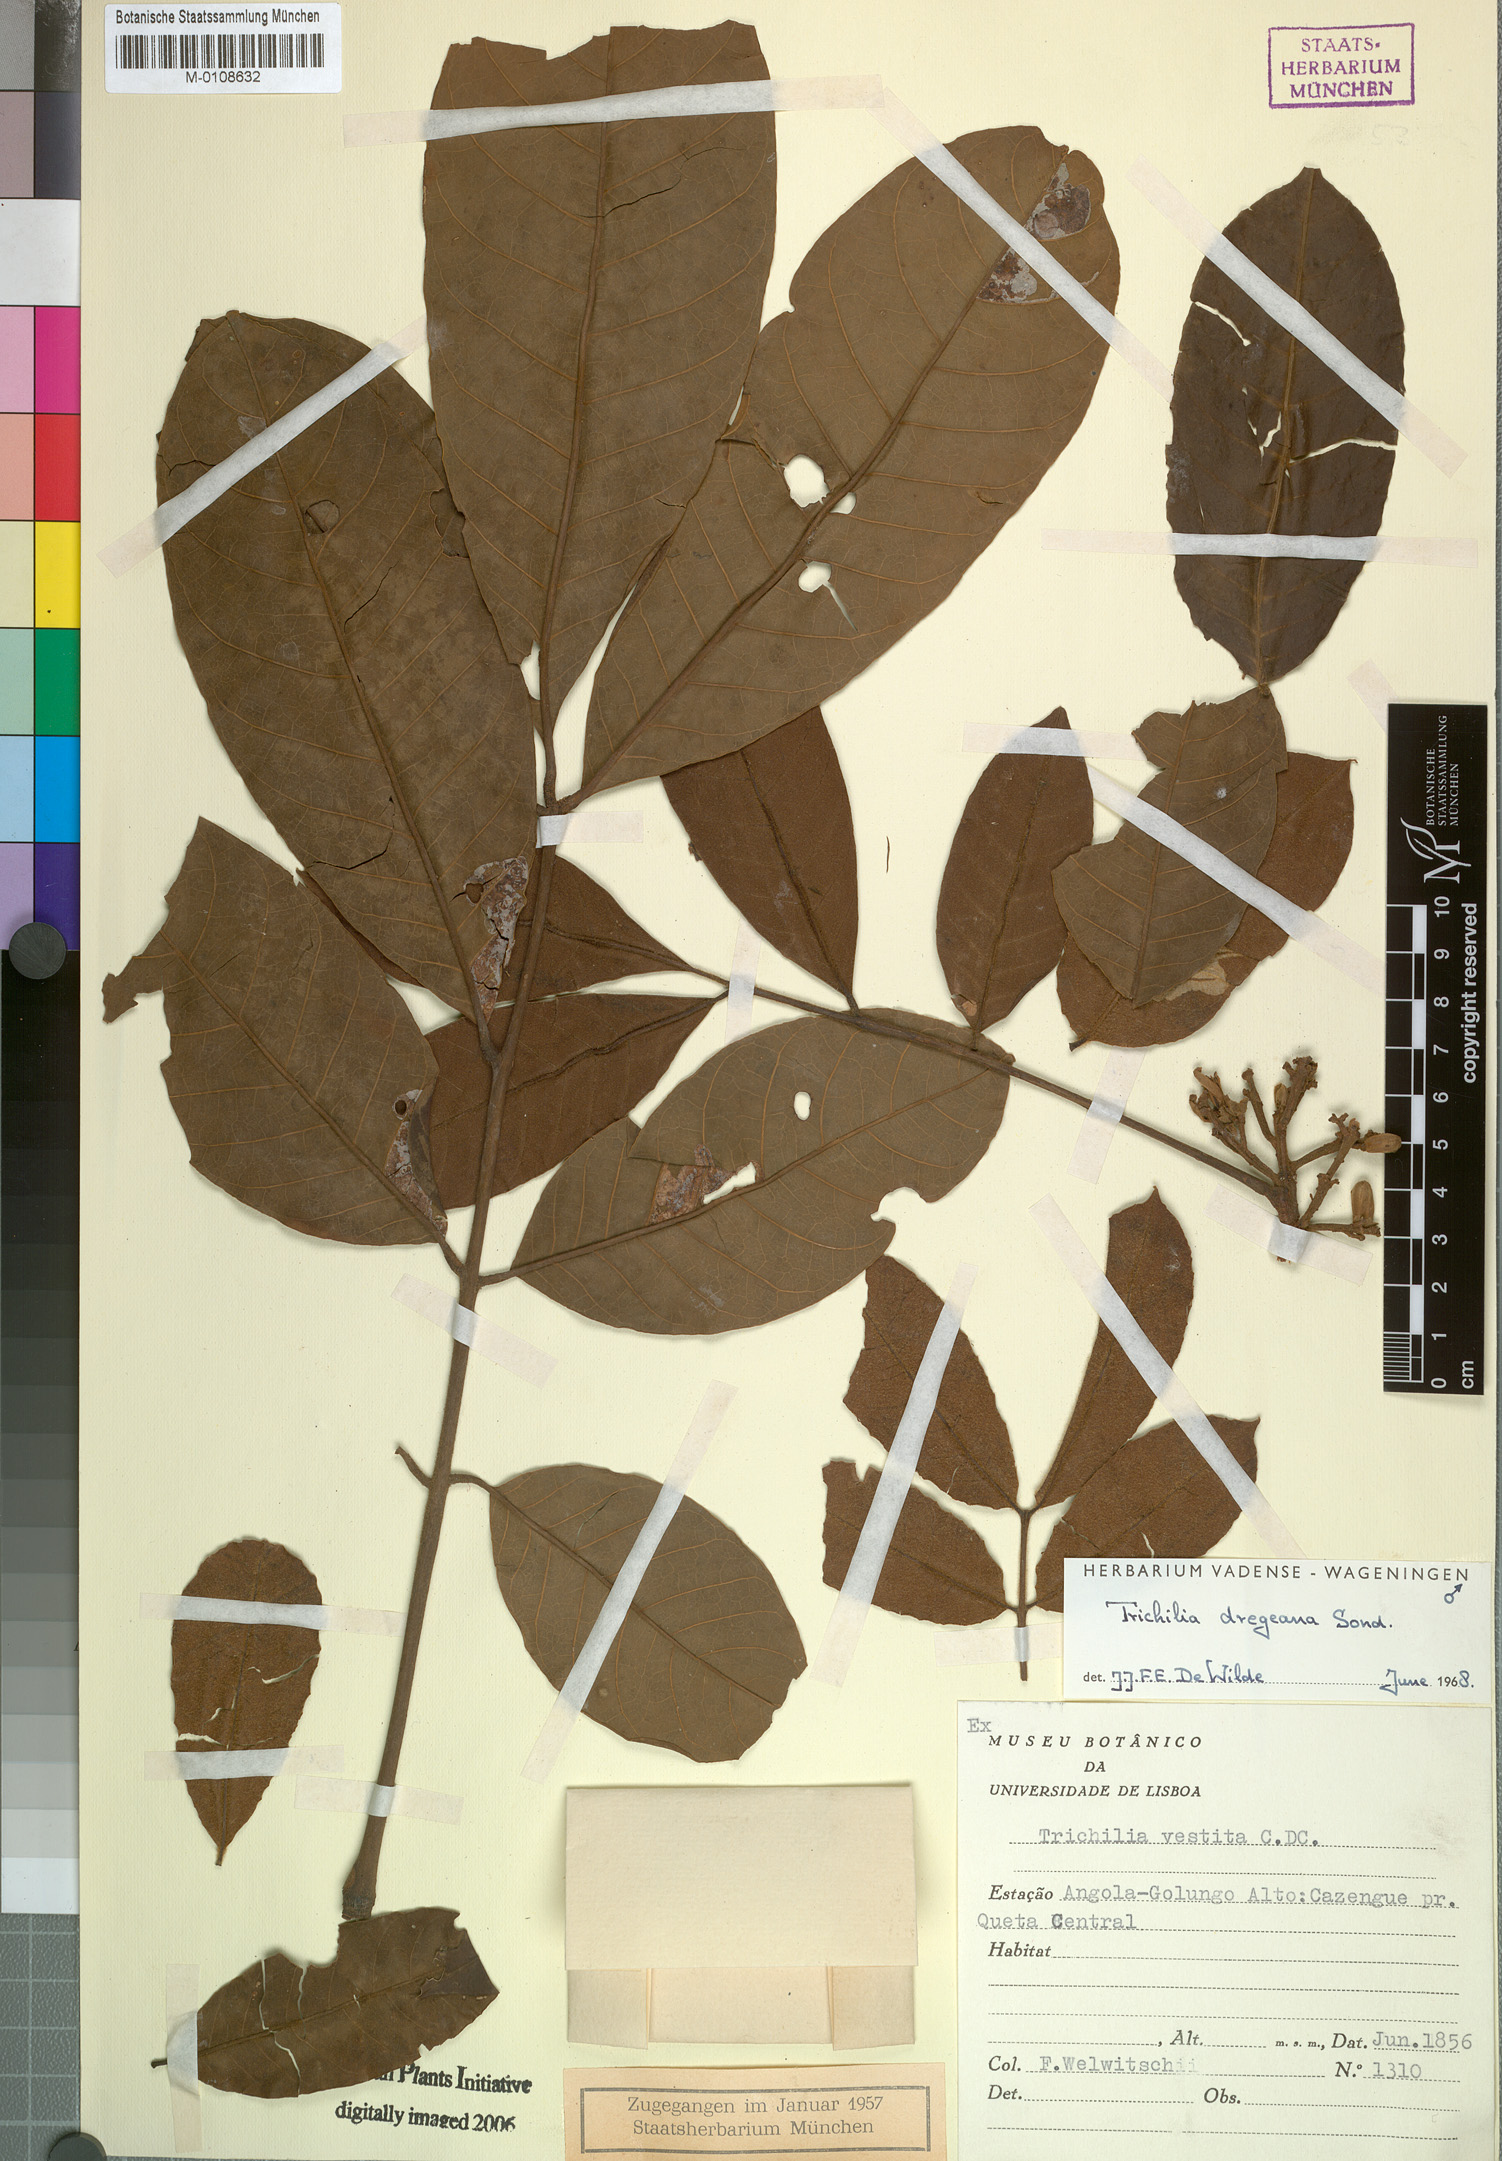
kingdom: Plantae
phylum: Tracheophyta
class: Magnoliopsida
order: Sapindales
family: Meliaceae
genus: Trichilia
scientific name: Trichilia dregeana
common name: Christmas-bells
